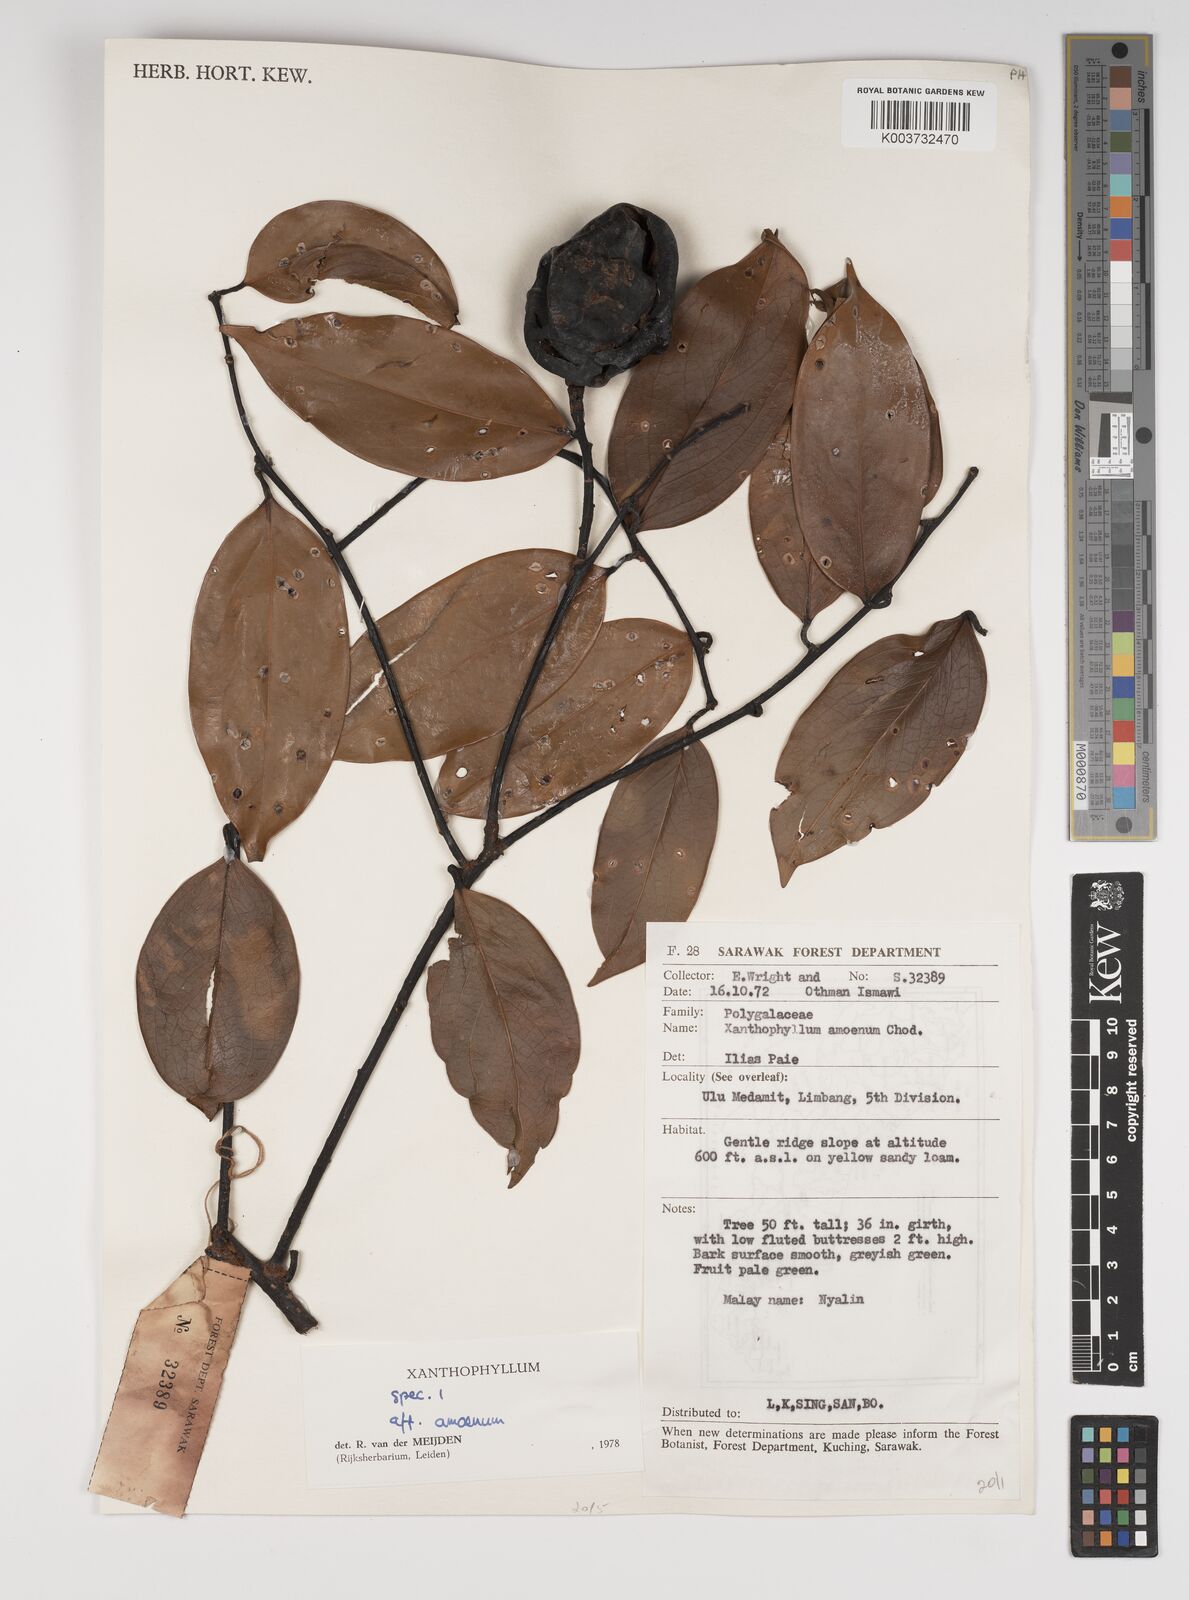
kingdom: Plantae
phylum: Tracheophyta
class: Magnoliopsida
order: Fabales
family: Polygalaceae
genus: Xanthophyllum
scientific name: Xanthophyllum stipitatum
